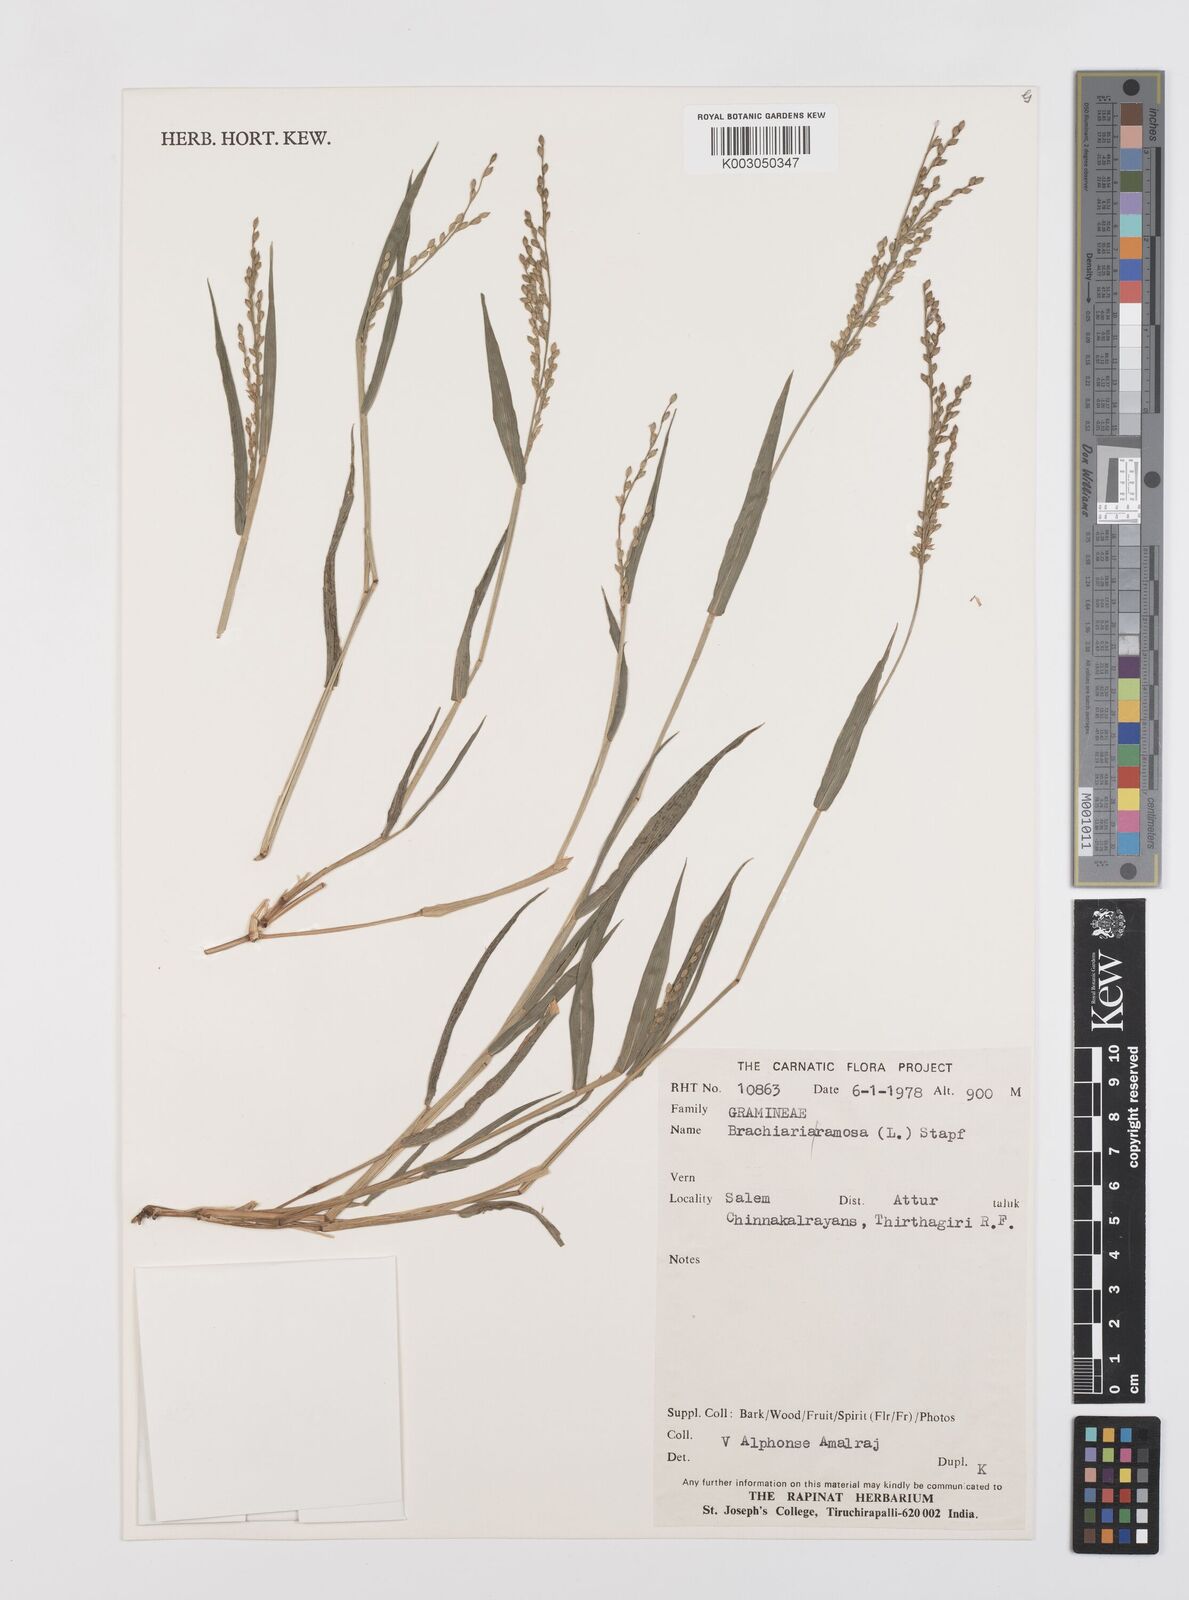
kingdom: Plantae
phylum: Tracheophyta
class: Liliopsida
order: Poales
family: Poaceae
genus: Urochloa
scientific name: Urochloa ramosa
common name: Browntop millet
